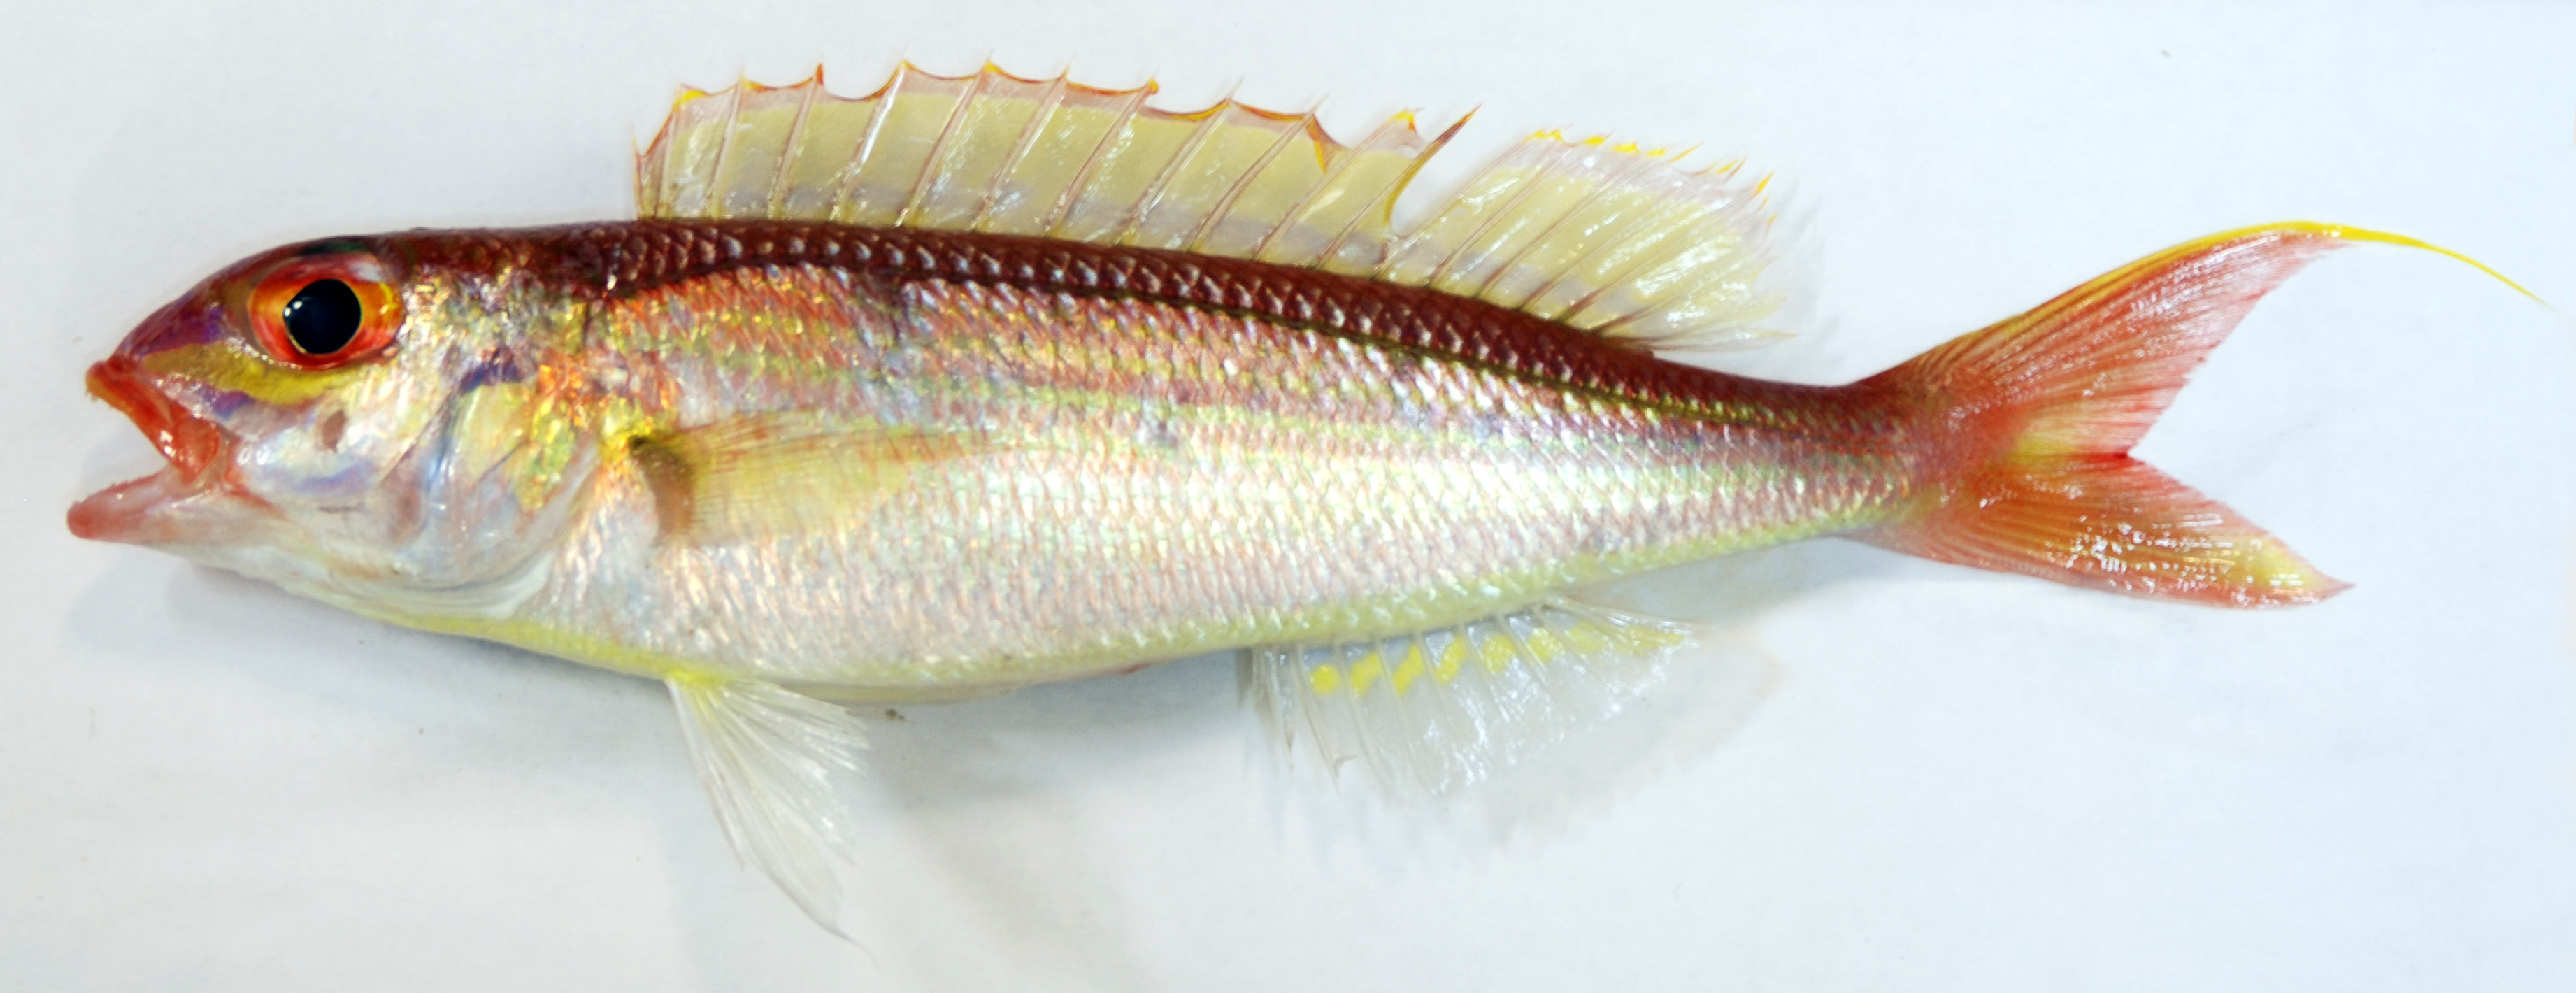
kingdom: Animalia
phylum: Chordata
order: Perciformes
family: Nemipteridae
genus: Nemipterus
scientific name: Nemipterus zysron
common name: Slender threadfin bream
